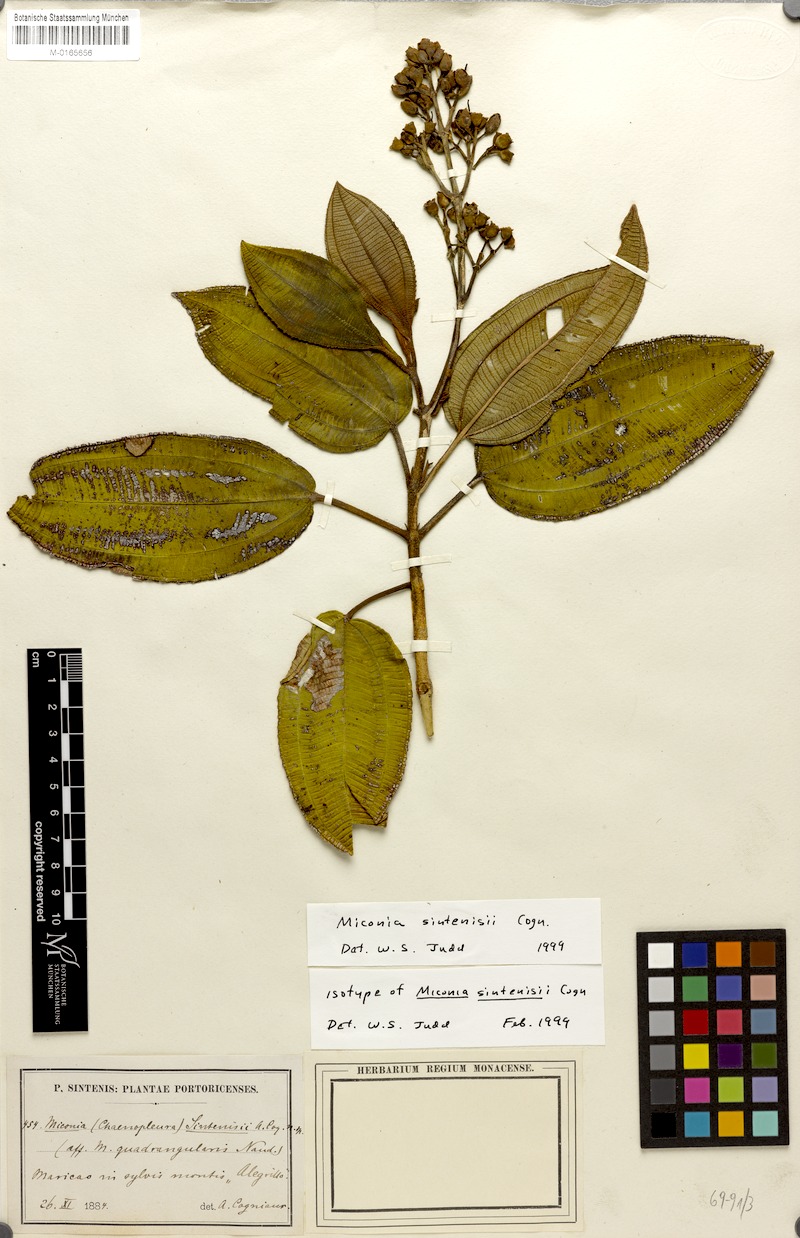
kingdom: Plantae
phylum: Tracheophyta
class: Magnoliopsida
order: Myrtales
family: Melastomataceae
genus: Miconia
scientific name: Miconia sintenisii
